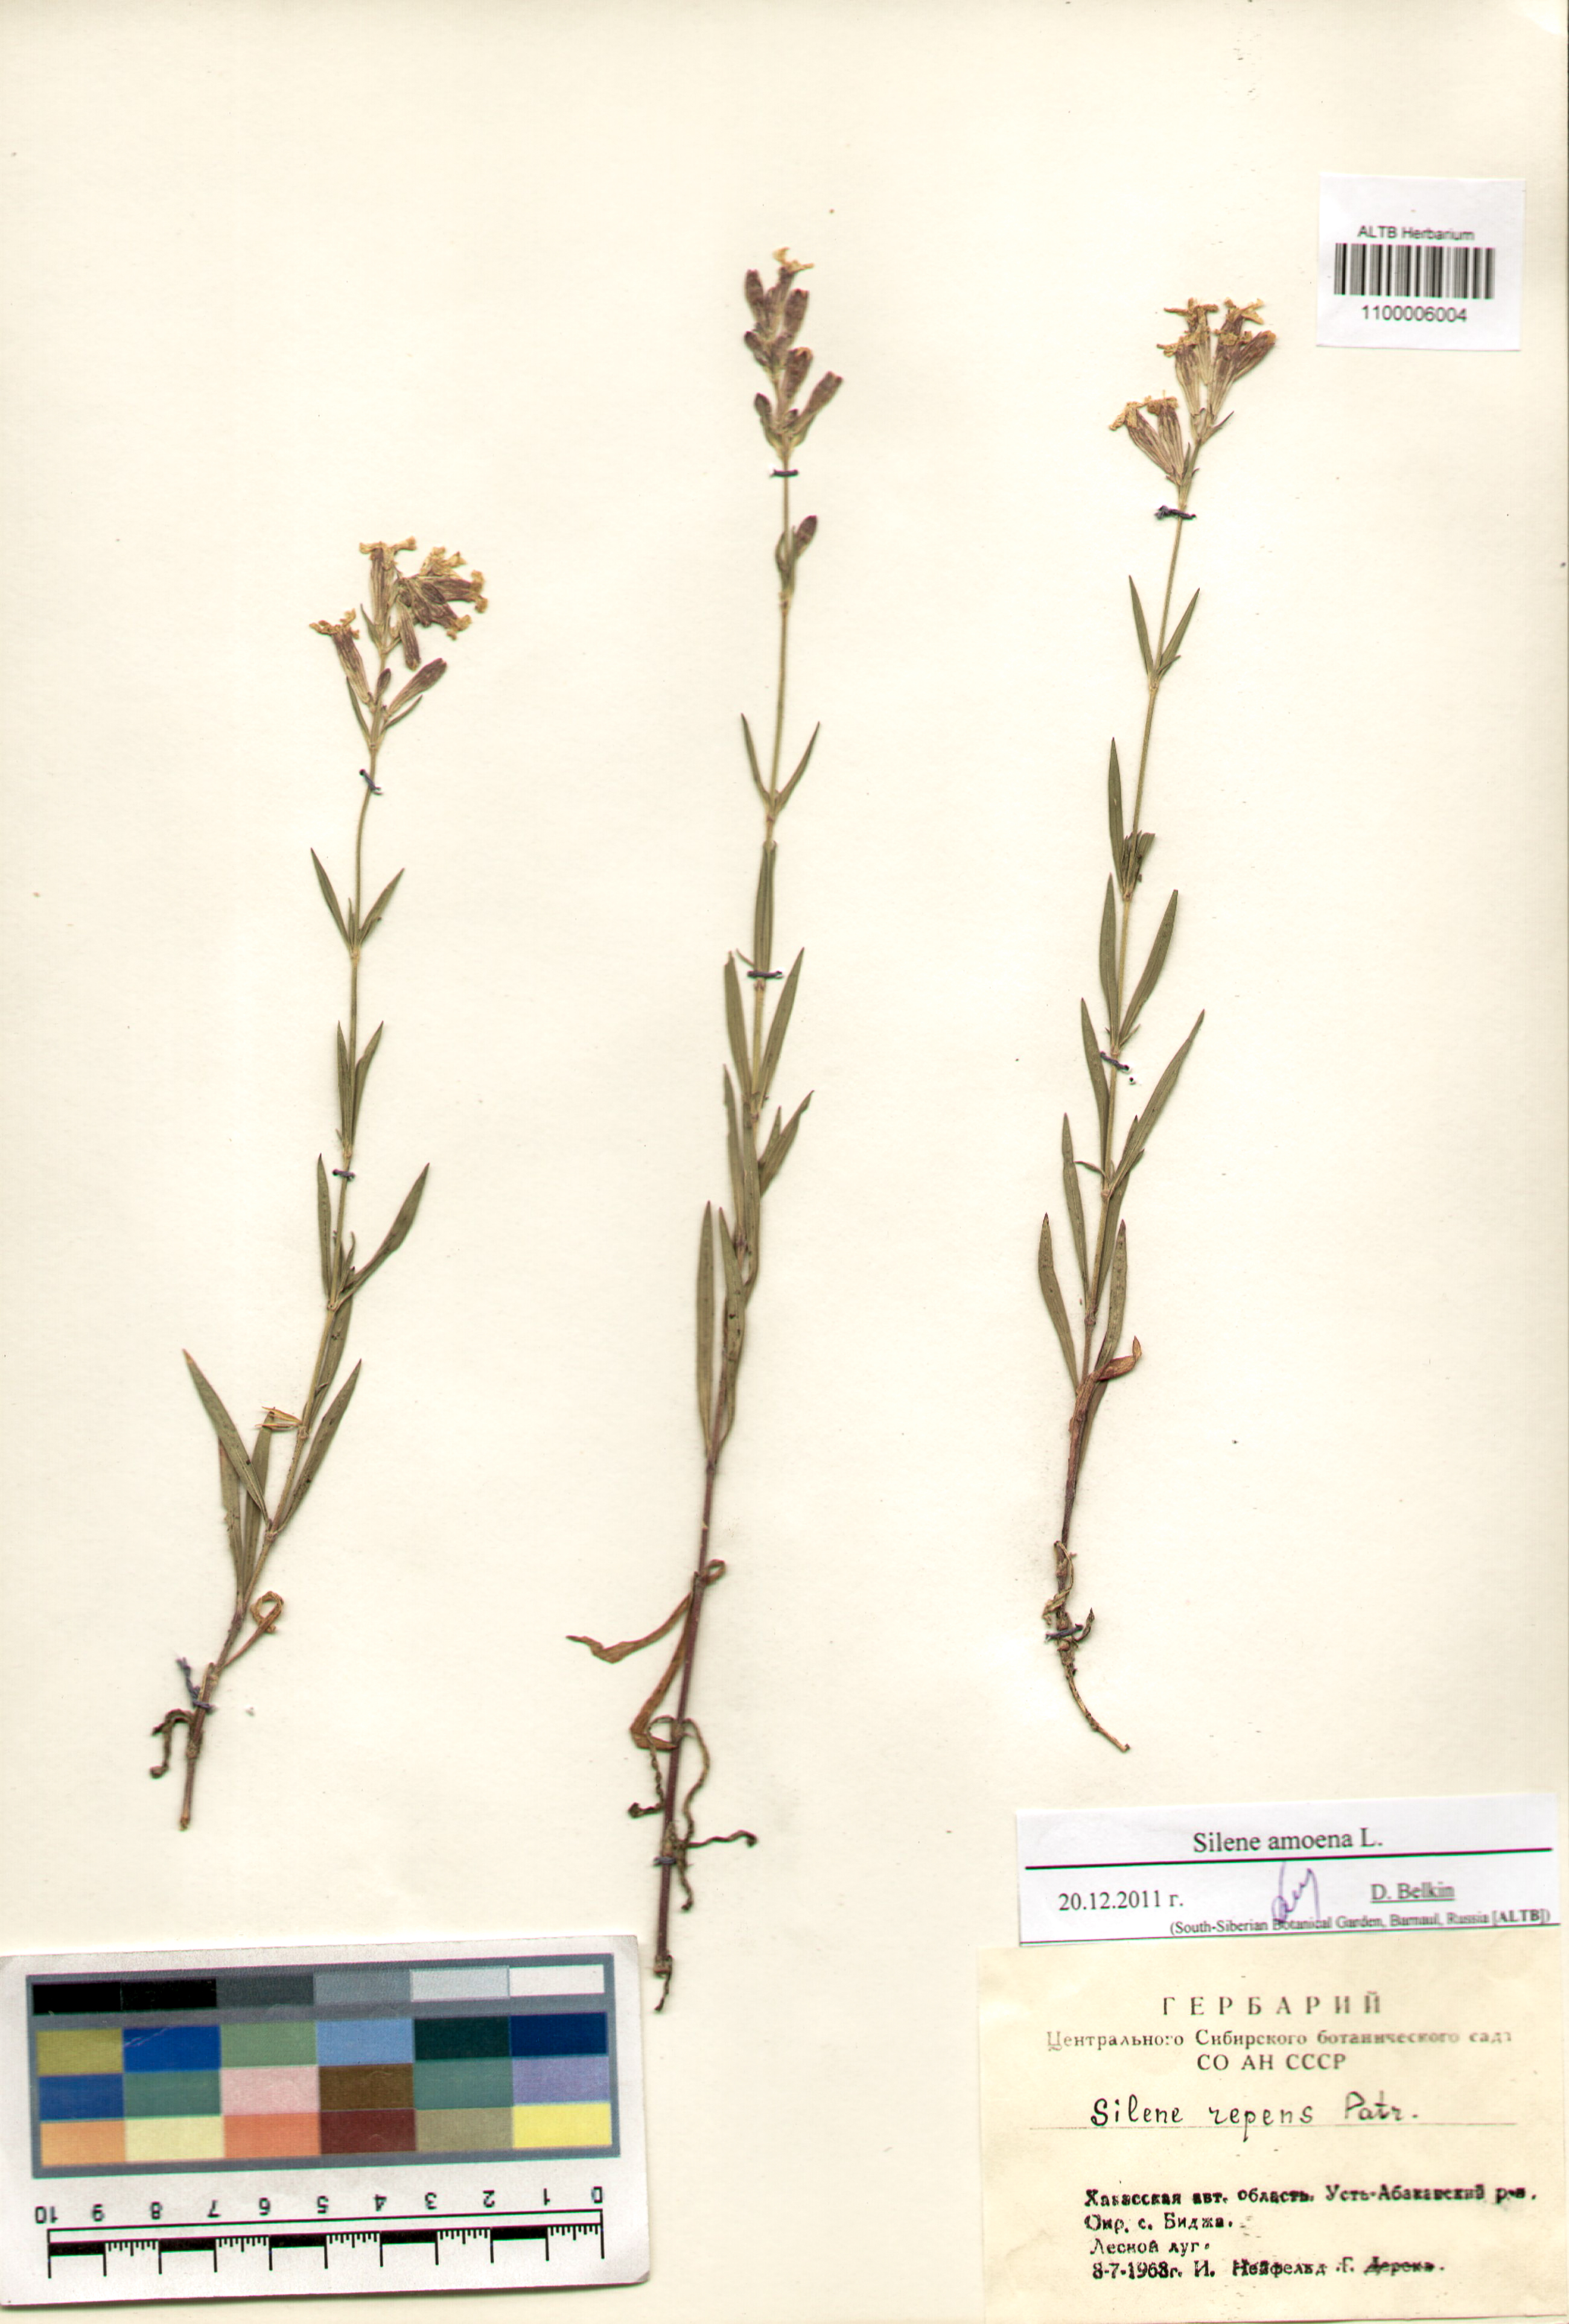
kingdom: Plantae
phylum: Tracheophyta
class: Magnoliopsida
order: Caryophyllales
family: Caryophyllaceae
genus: Silene
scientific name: Silene amoena
